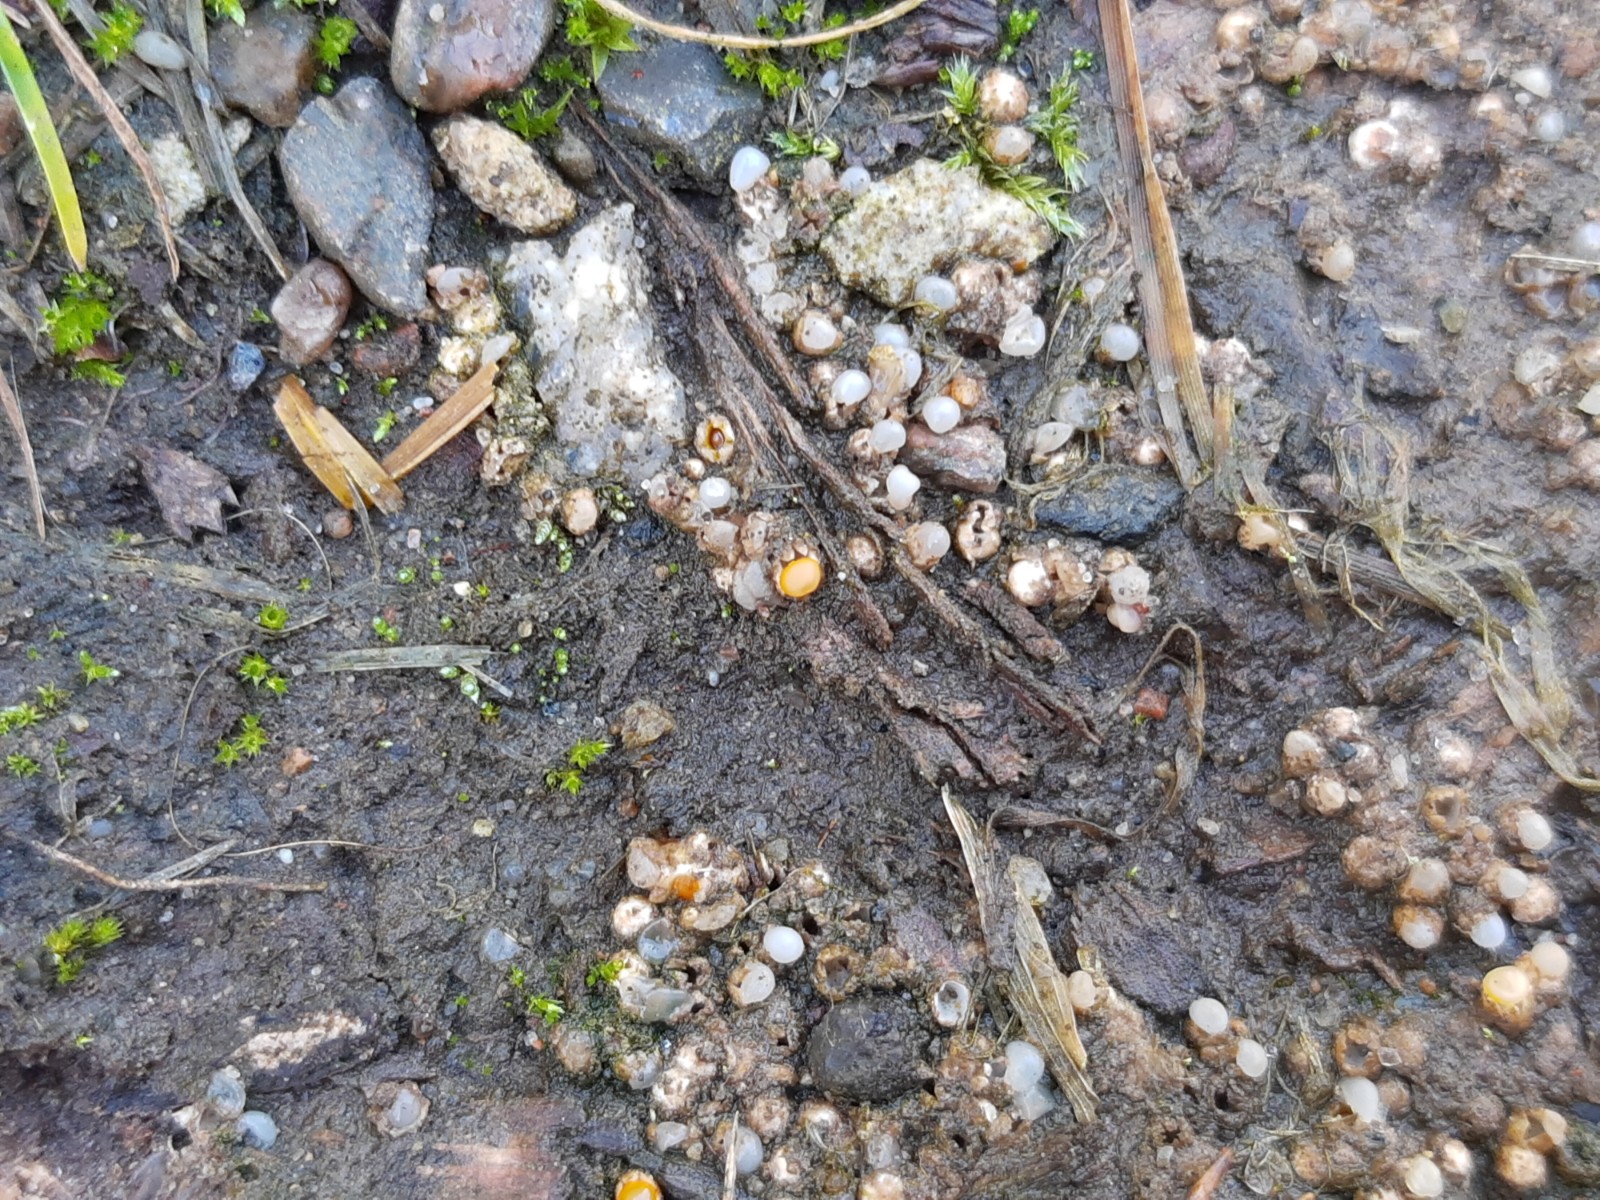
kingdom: Fungi
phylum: Basidiomycota
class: Agaricomycetes
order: Geastrales
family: Geastraceae
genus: Sphaerobolus
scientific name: Sphaerobolus stellatus
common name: bombekaster
